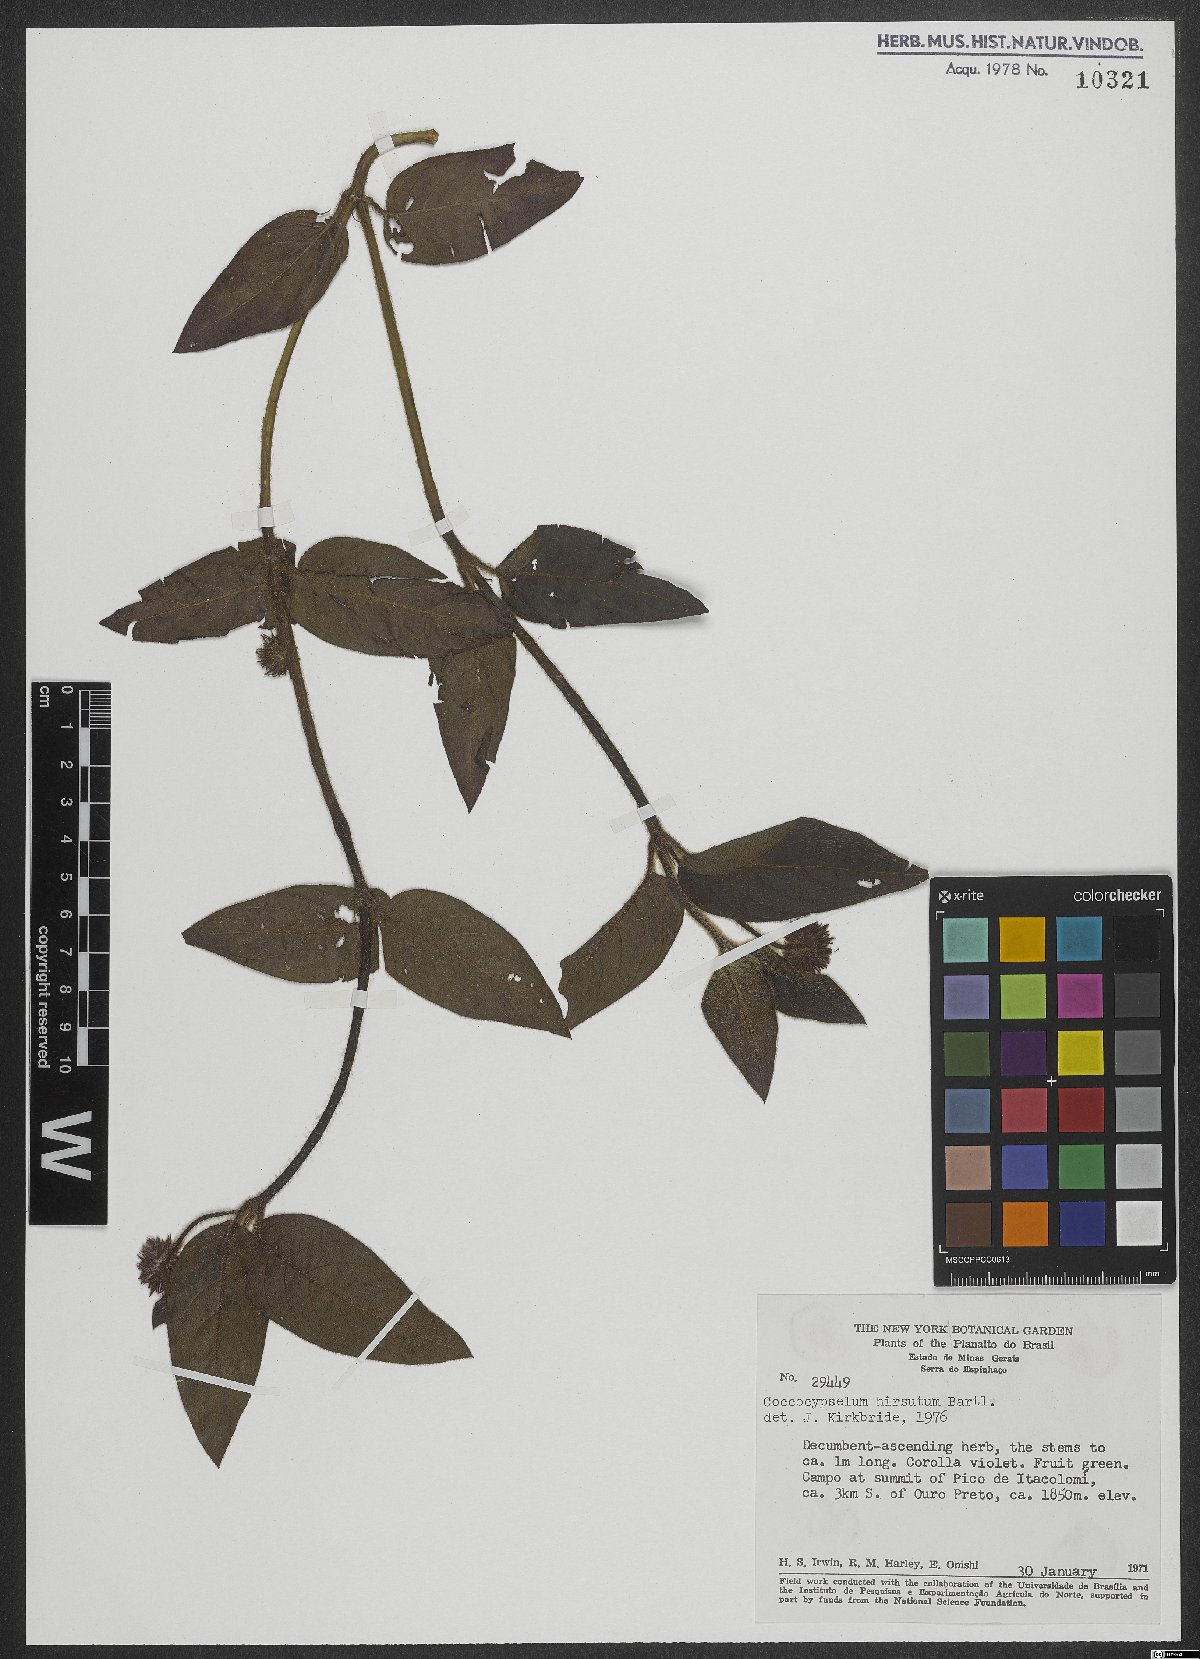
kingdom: Plantae
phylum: Tracheophyta
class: Magnoliopsida
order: Gentianales
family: Rubiaceae
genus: Coccocypselum
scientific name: Coccocypselum erythrocephalum
